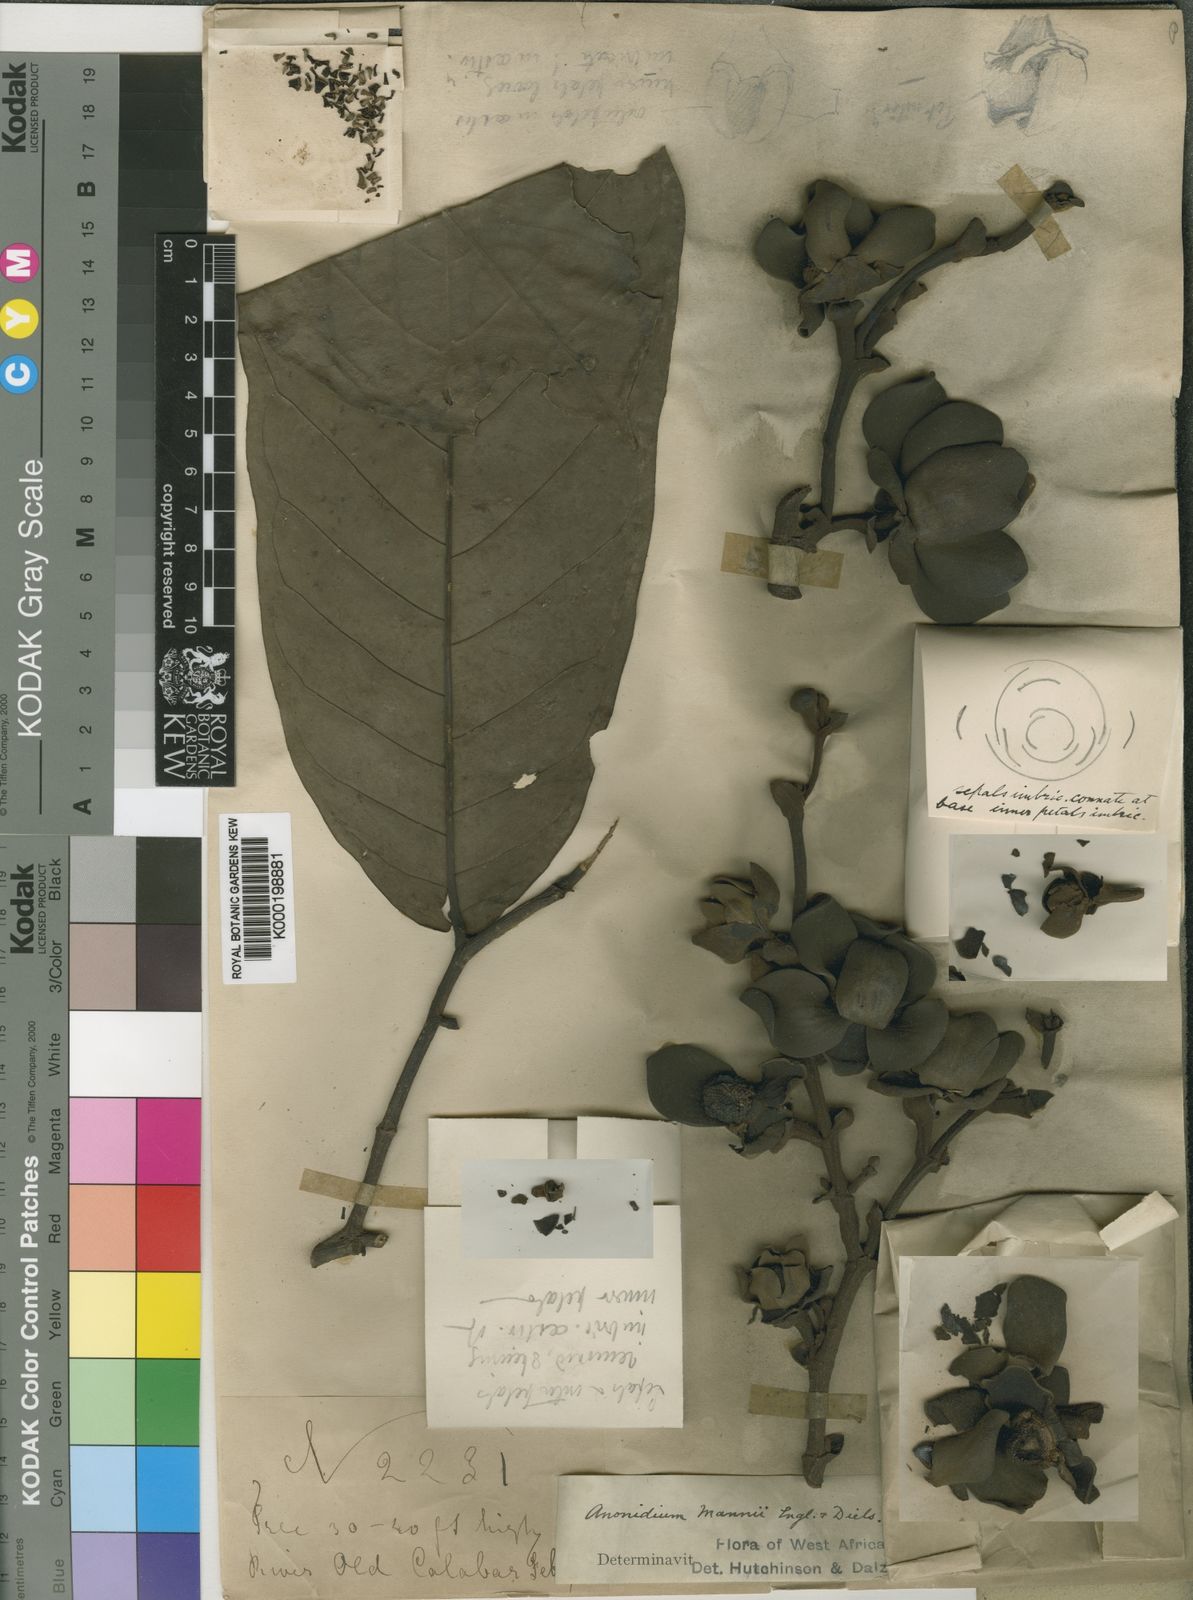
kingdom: Plantae
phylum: Tracheophyta
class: Magnoliopsida
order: Magnoliales
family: Annonaceae
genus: Anonidium
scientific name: Anonidium mannii
